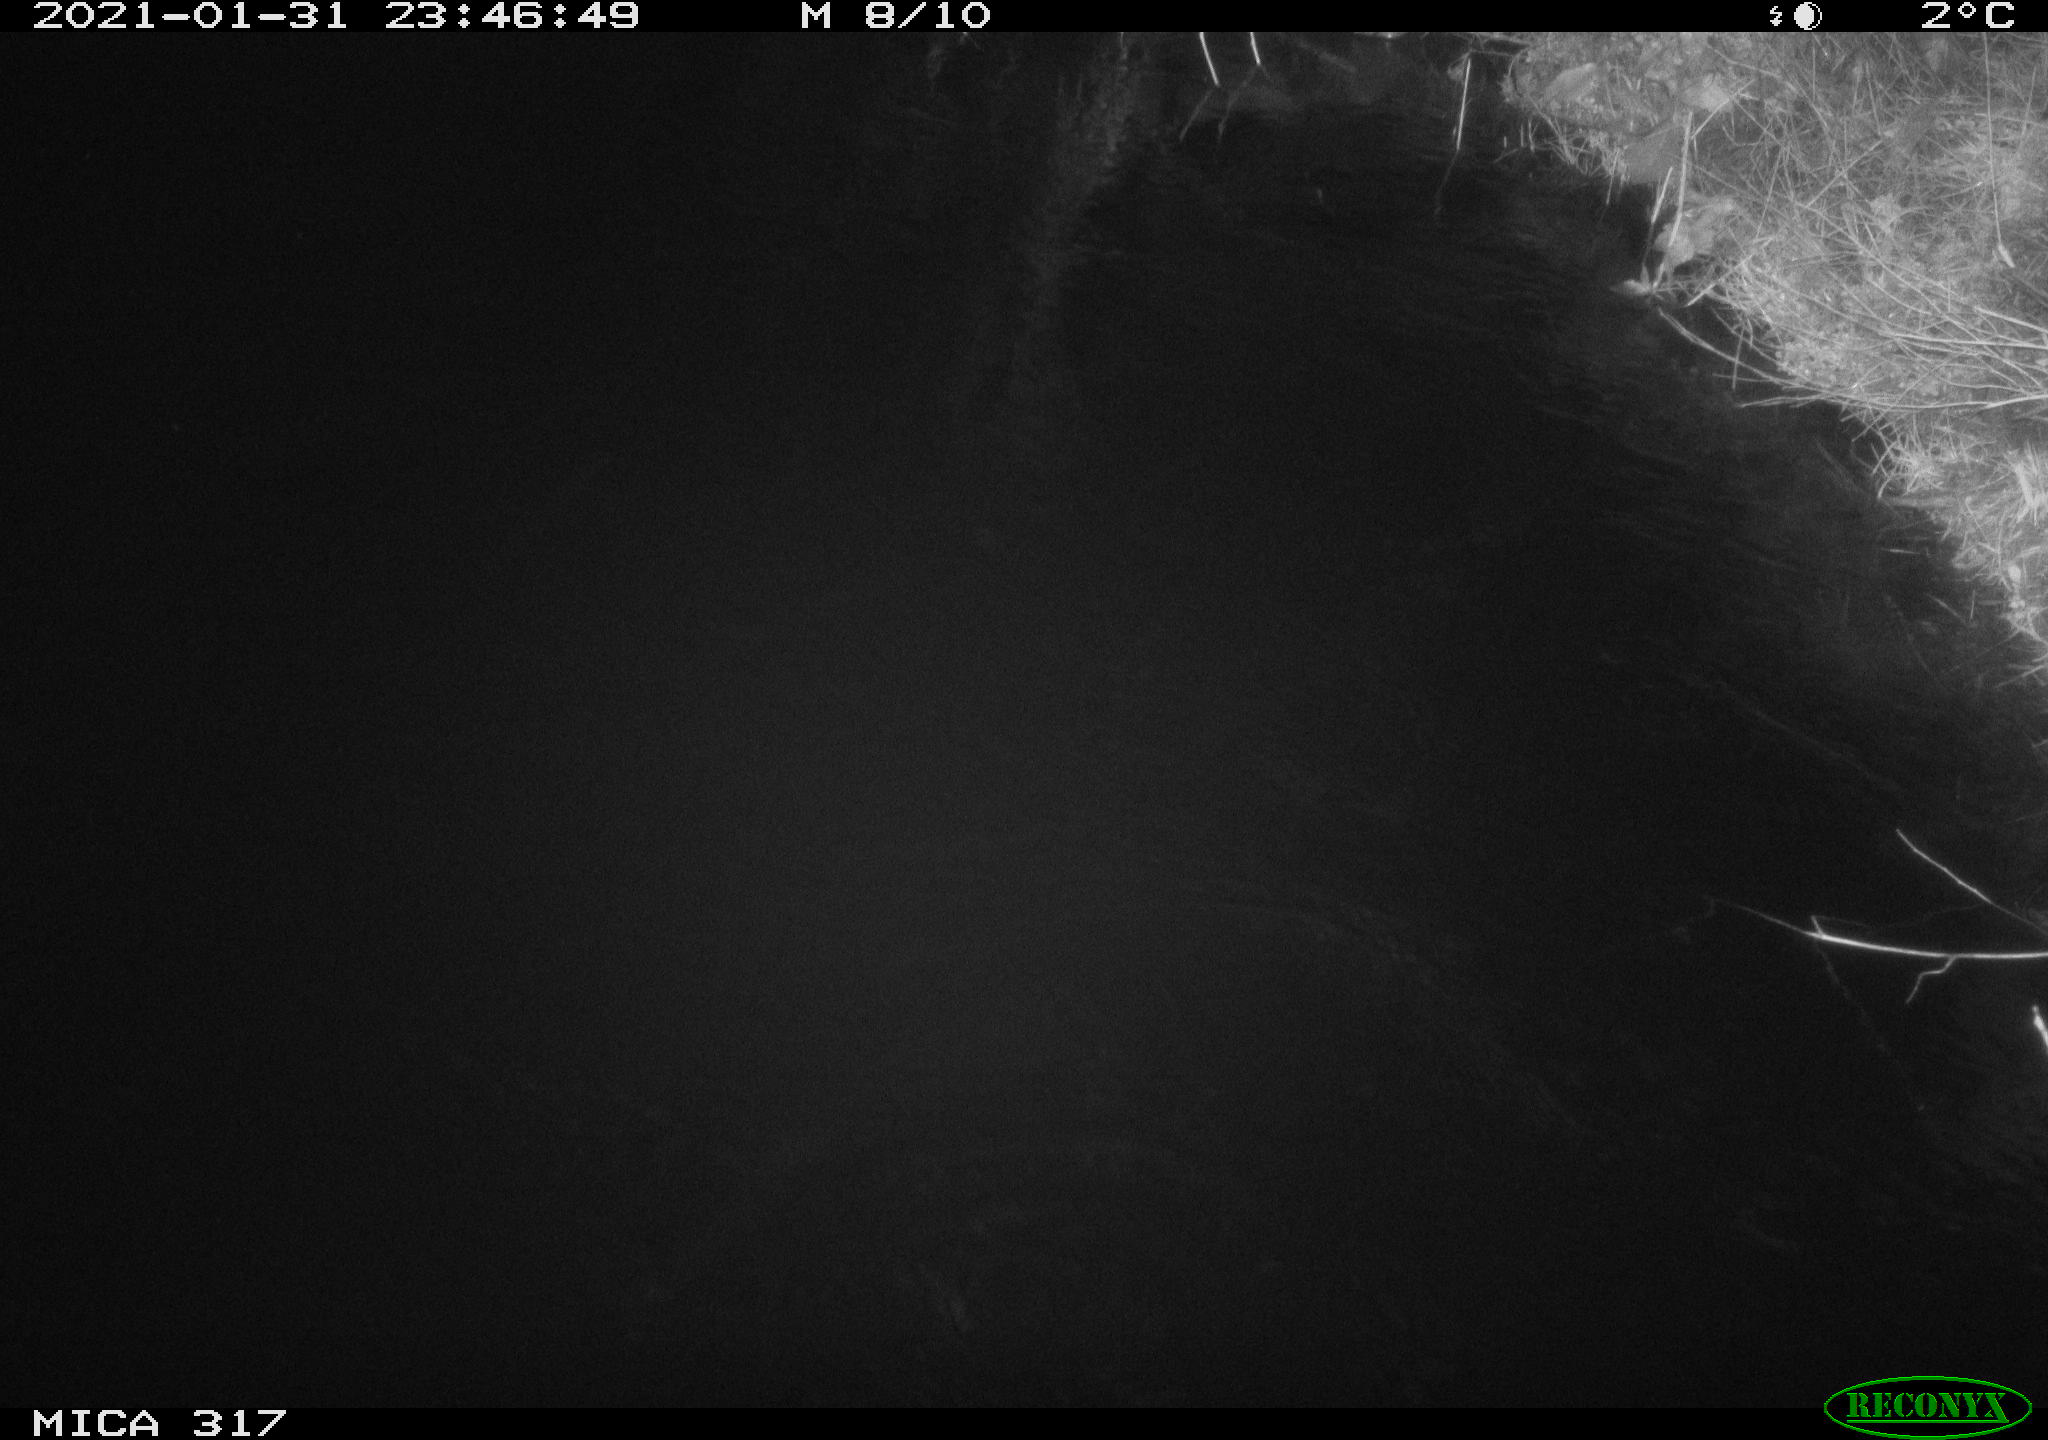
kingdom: Animalia
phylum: Chordata
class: Mammalia
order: Carnivora
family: Canidae
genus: Vulpes
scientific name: Vulpes vulpes
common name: Red fox
